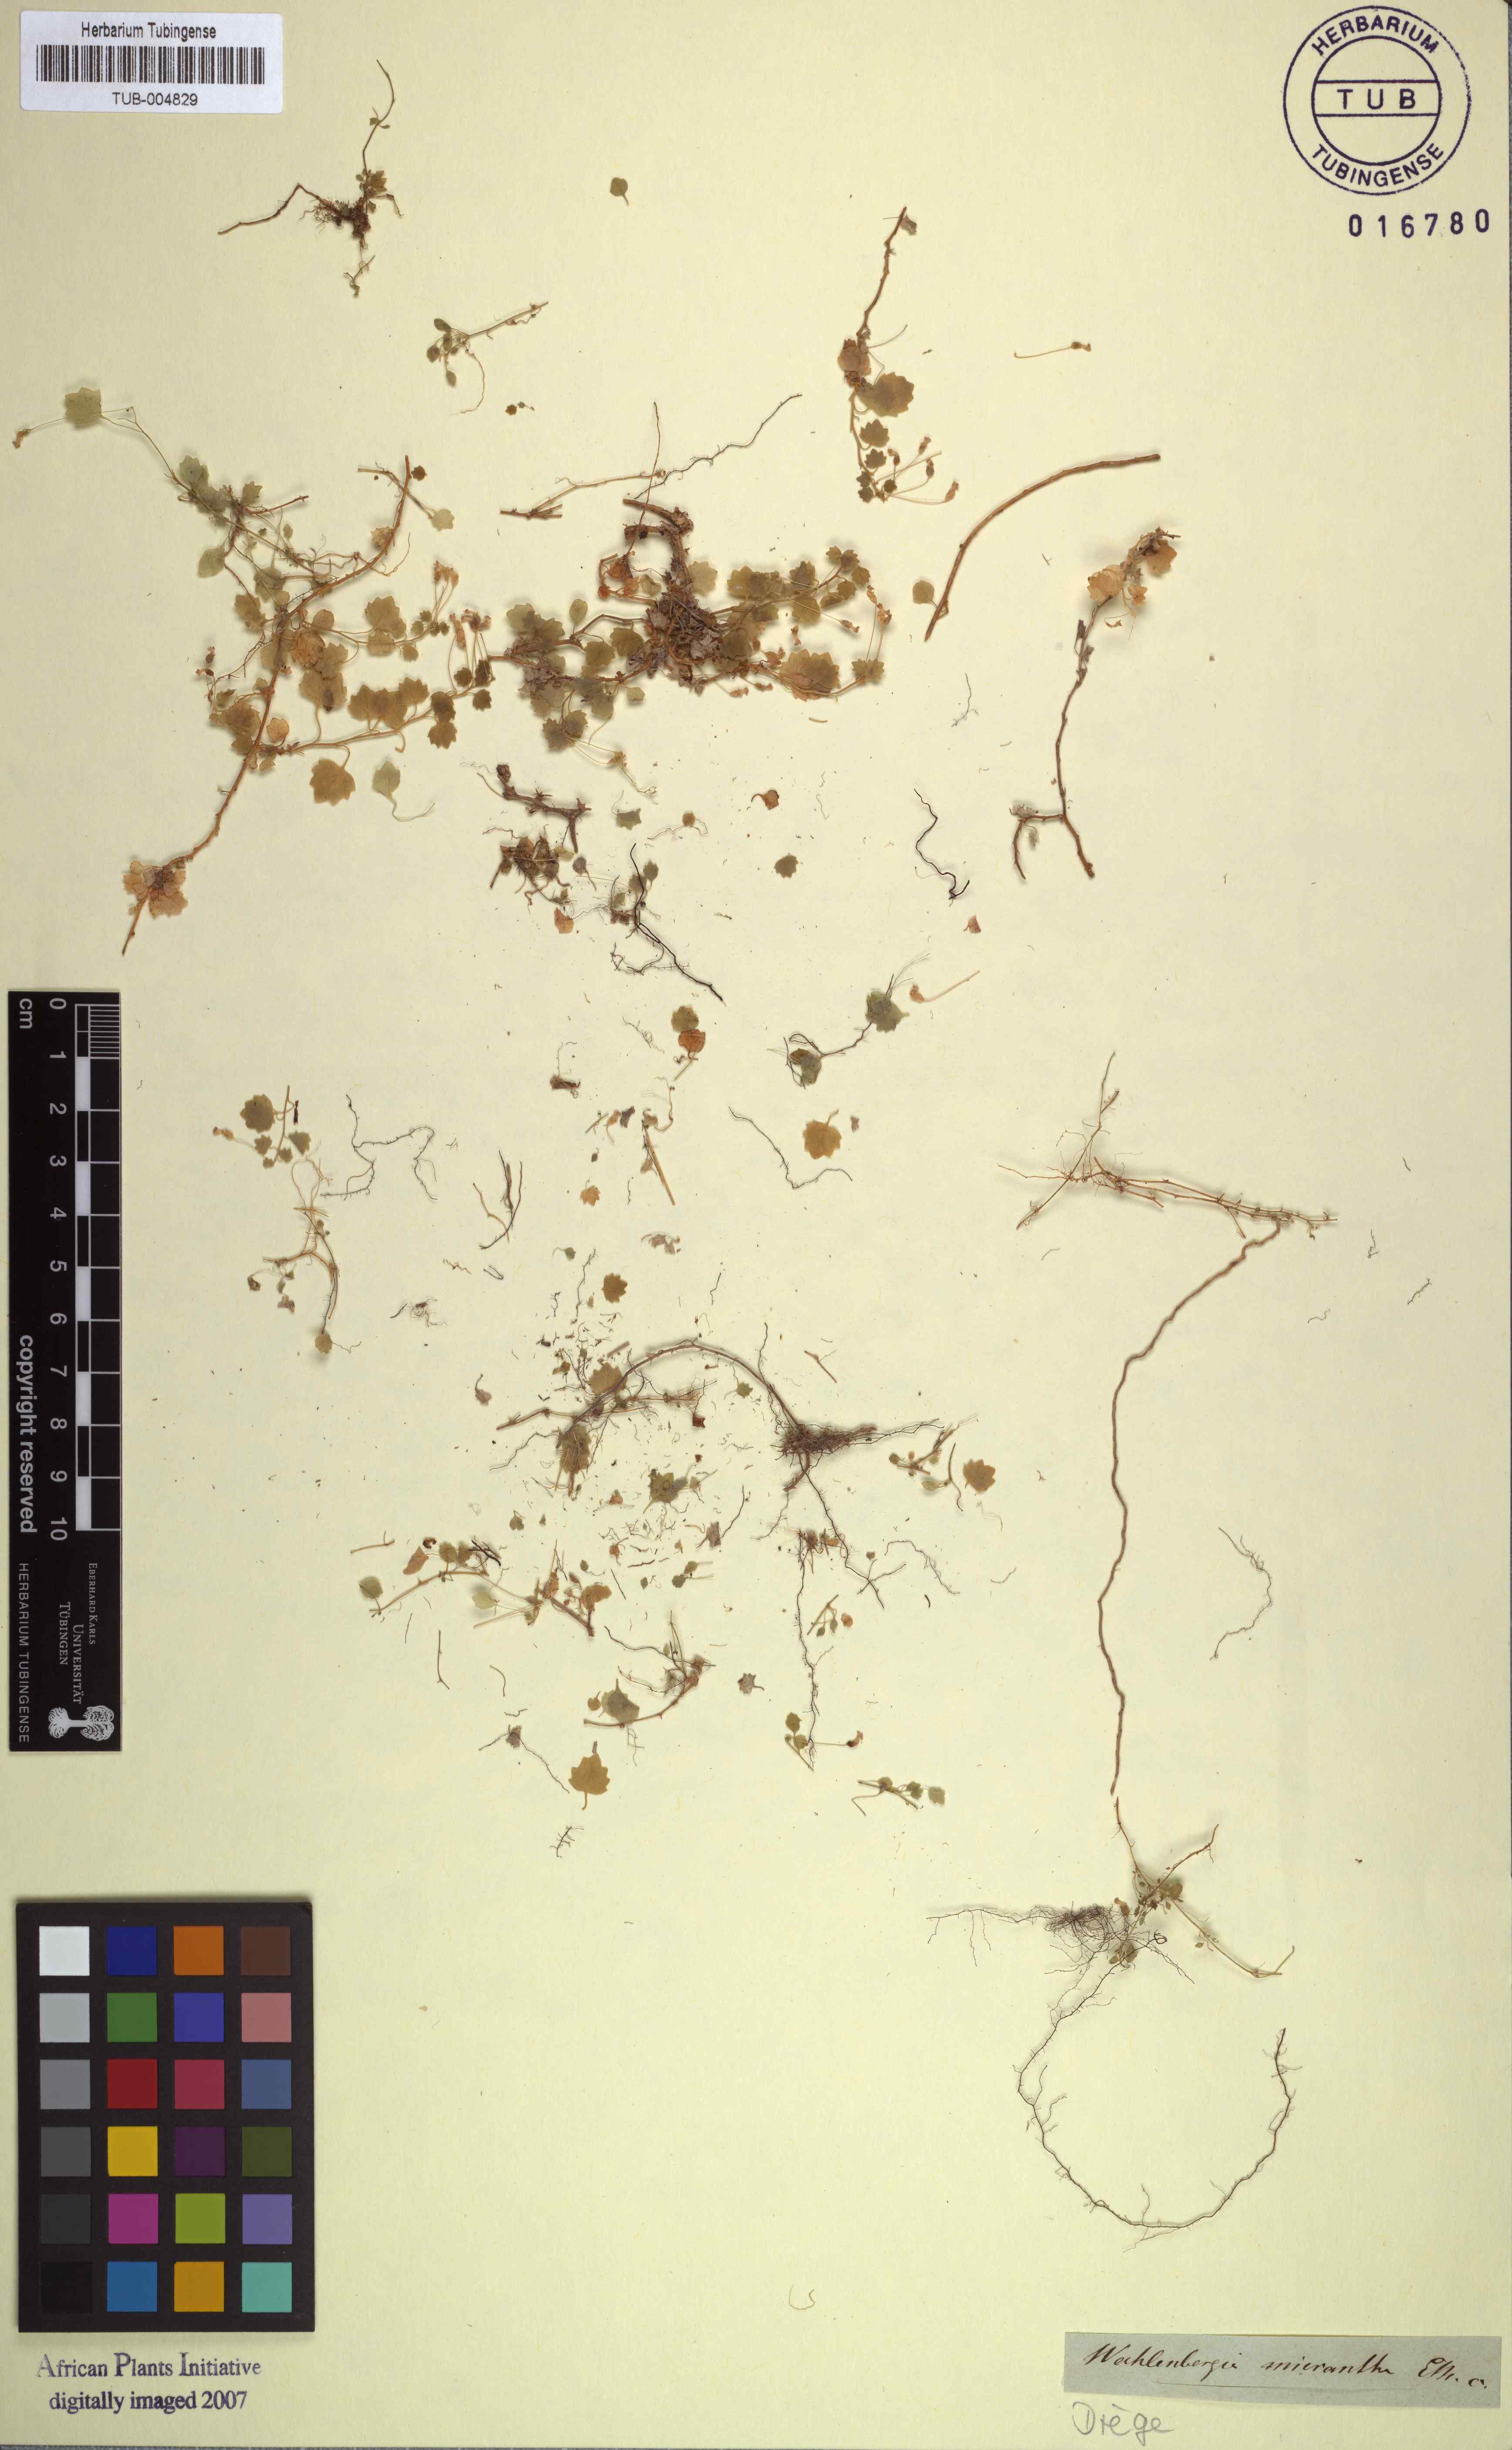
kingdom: Plantae
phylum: Tracheophyta
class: Magnoliopsida
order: Asterales
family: Campanulaceae
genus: Wimmerella
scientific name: Wimmerella pygmaea
